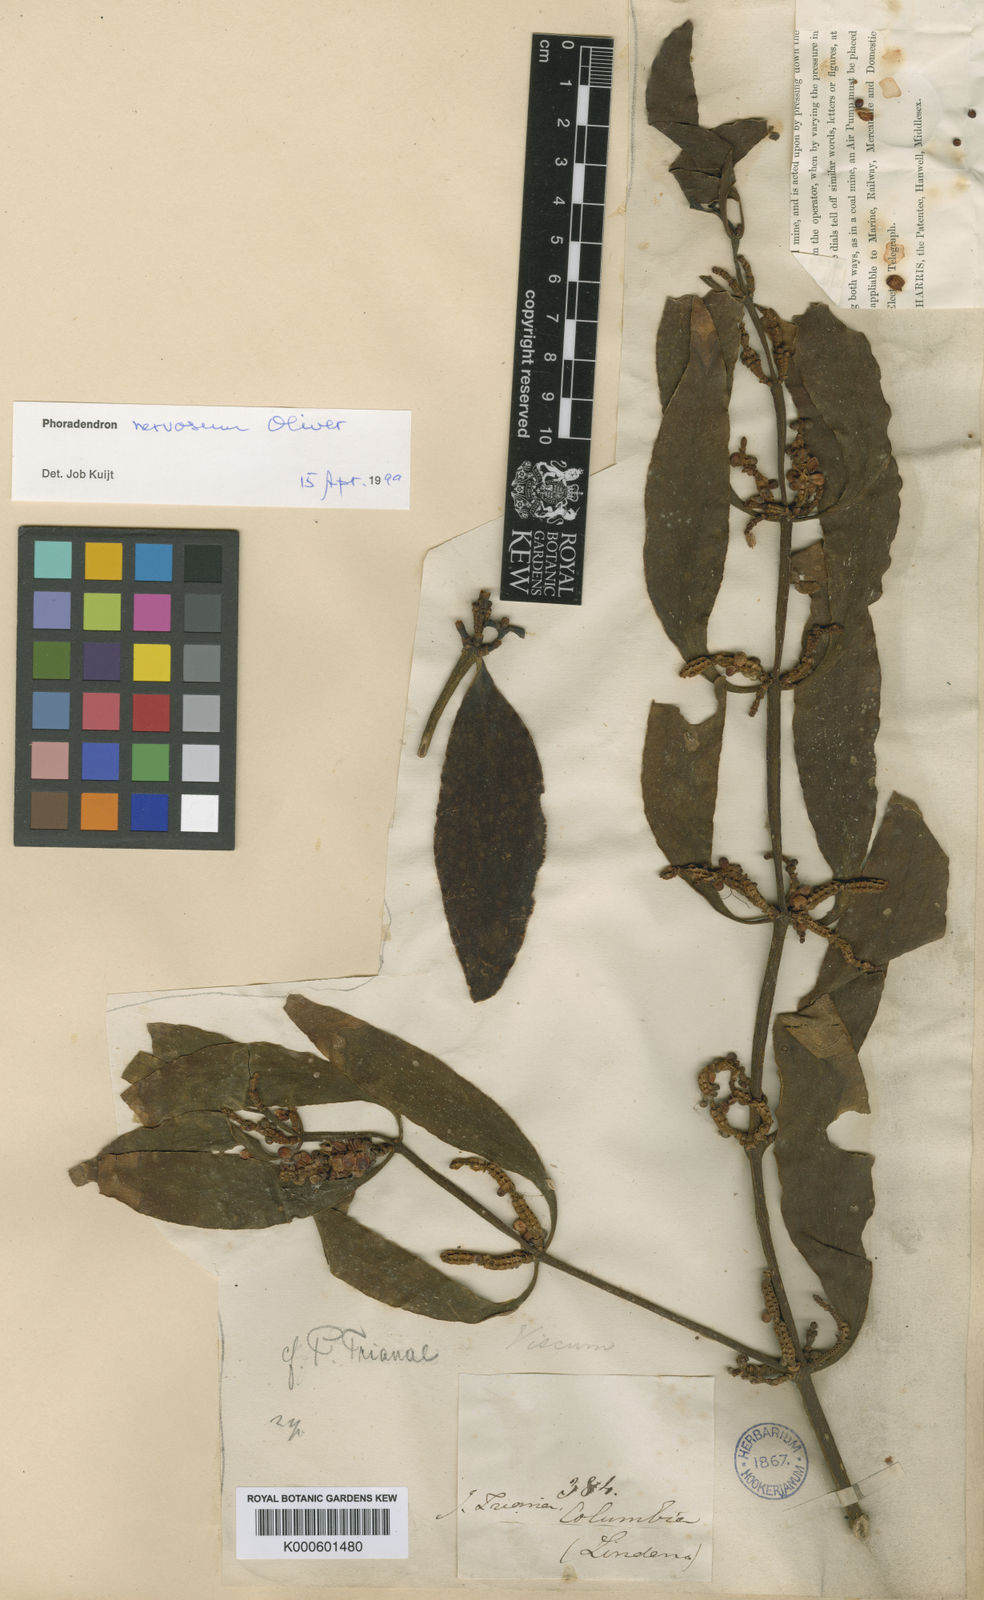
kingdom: Plantae
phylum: Tracheophyta
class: Magnoliopsida
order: Santalales
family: Viscaceae
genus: Phoradendron
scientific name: Phoradendron nervosum
